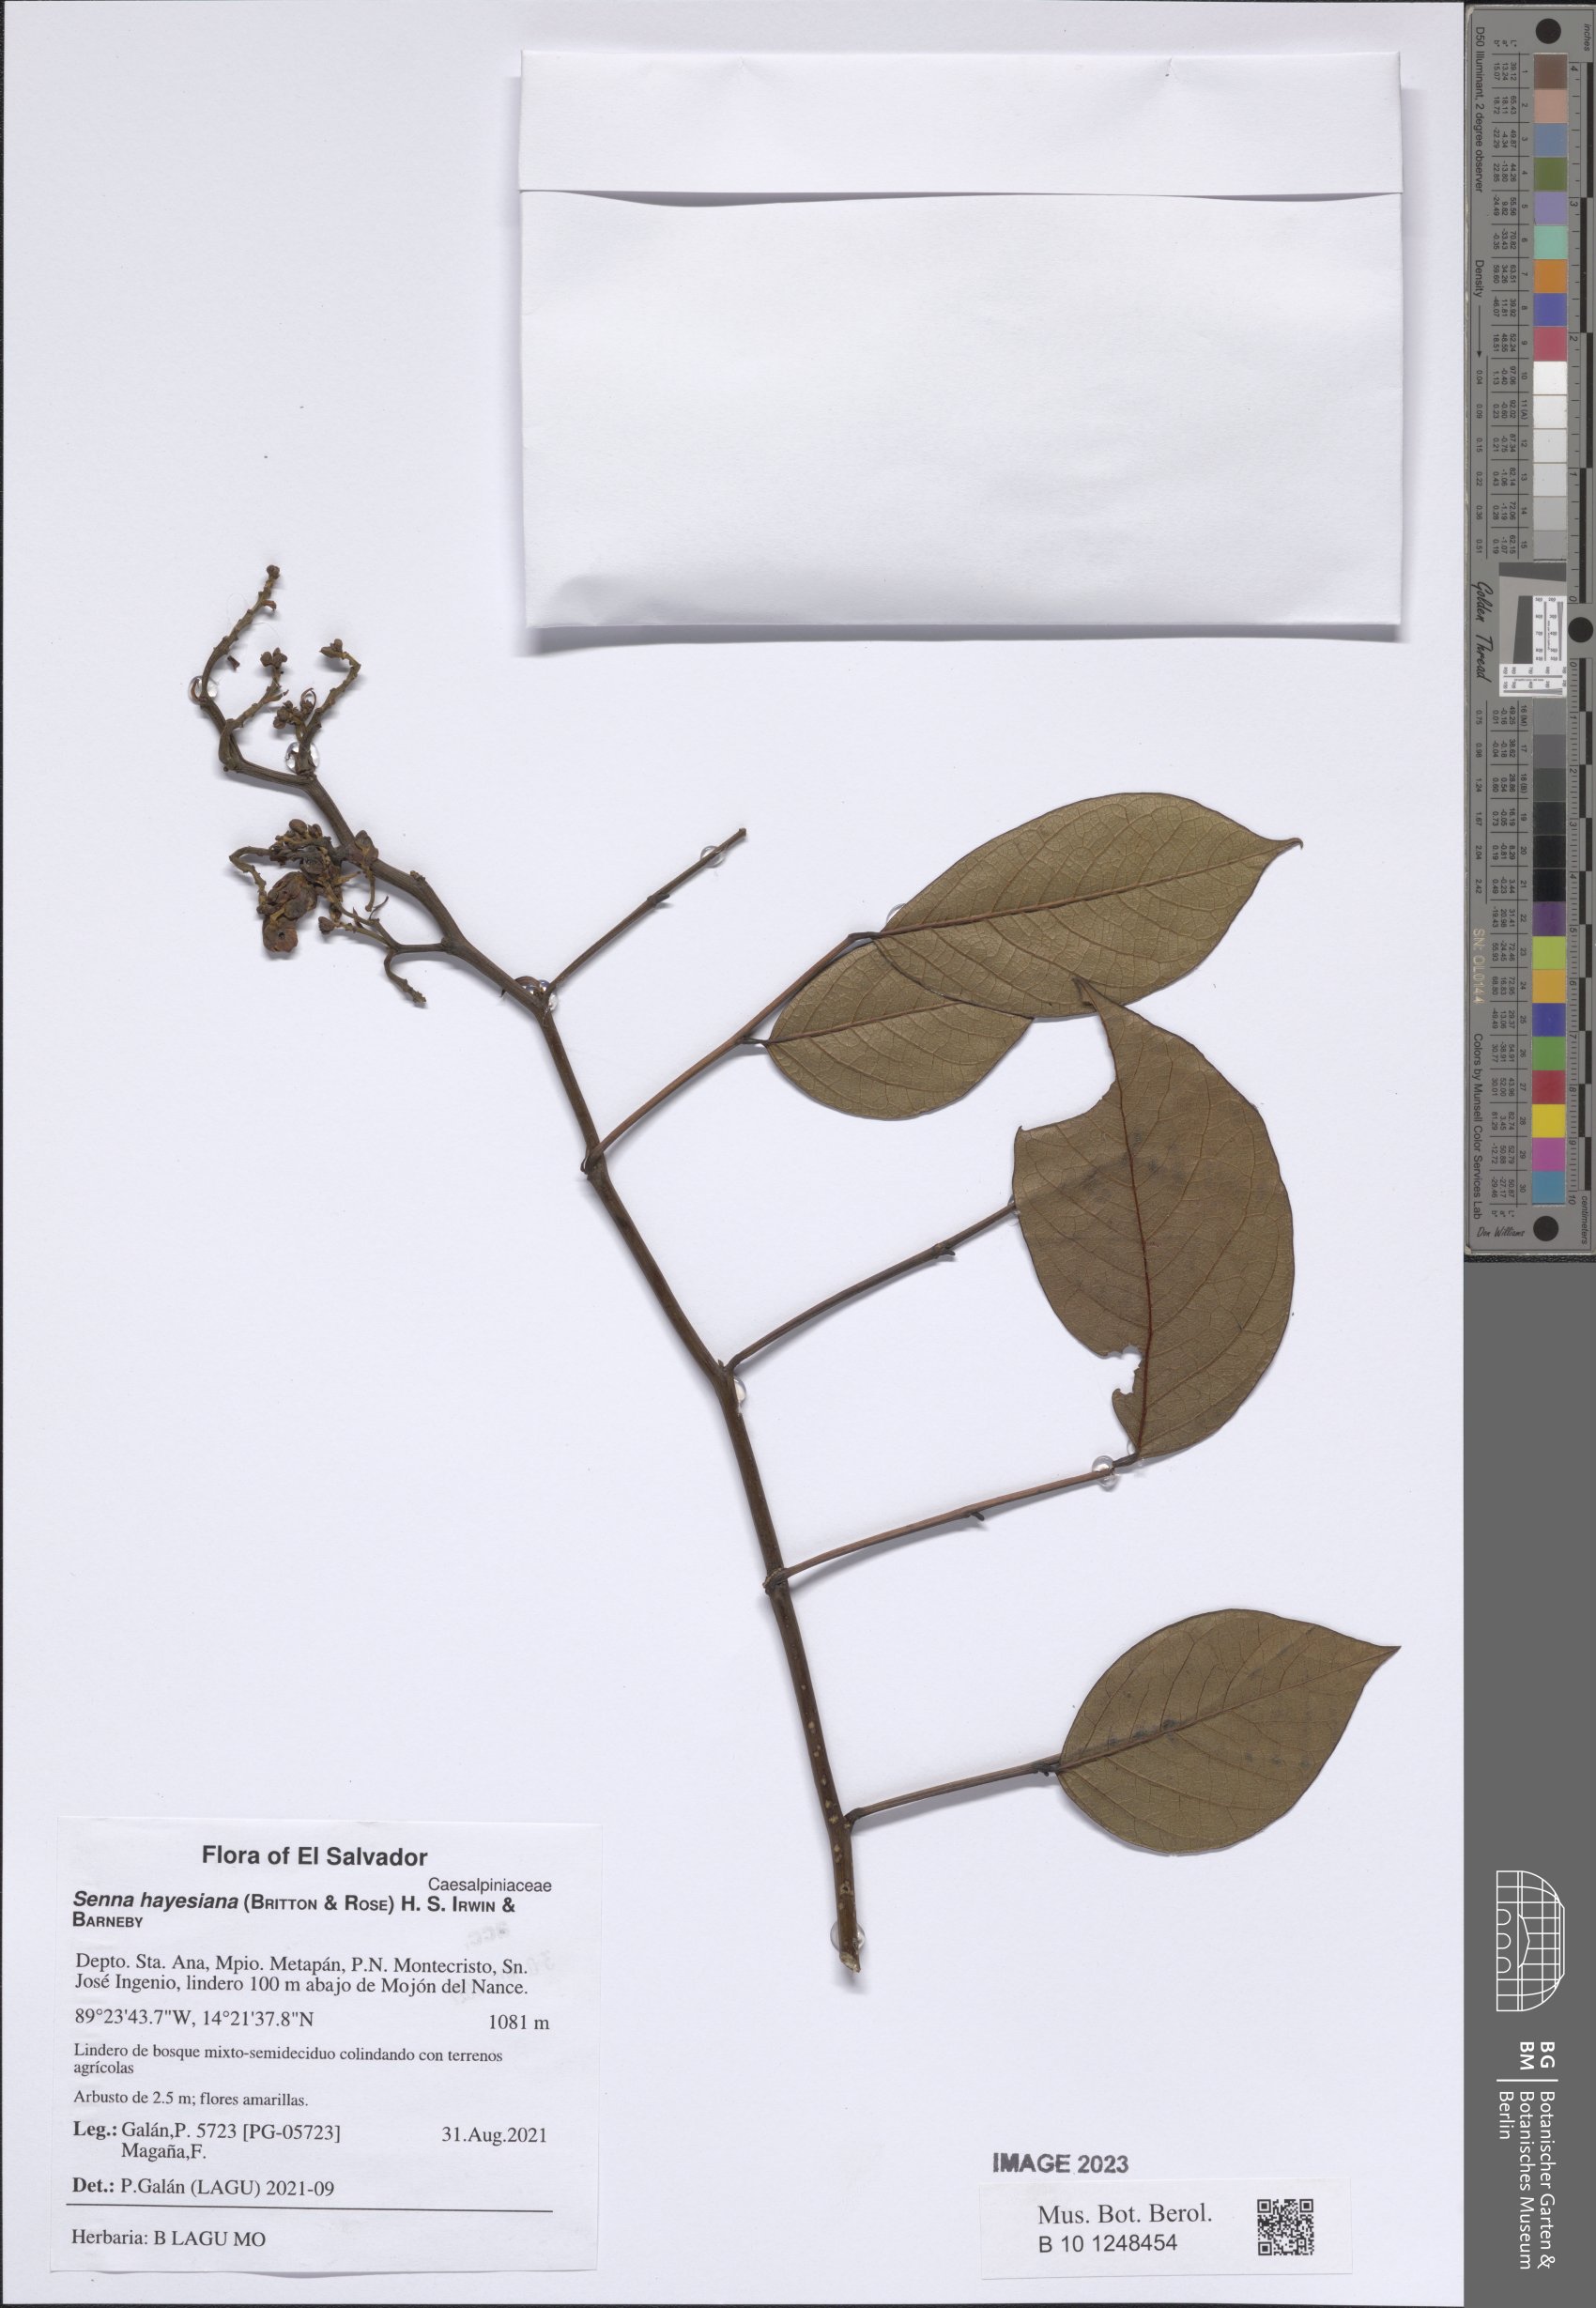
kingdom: Plantae
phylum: Tracheophyta
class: Magnoliopsida
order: Fabales
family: Fabaceae
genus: Senna
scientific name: Senna hayesiana
